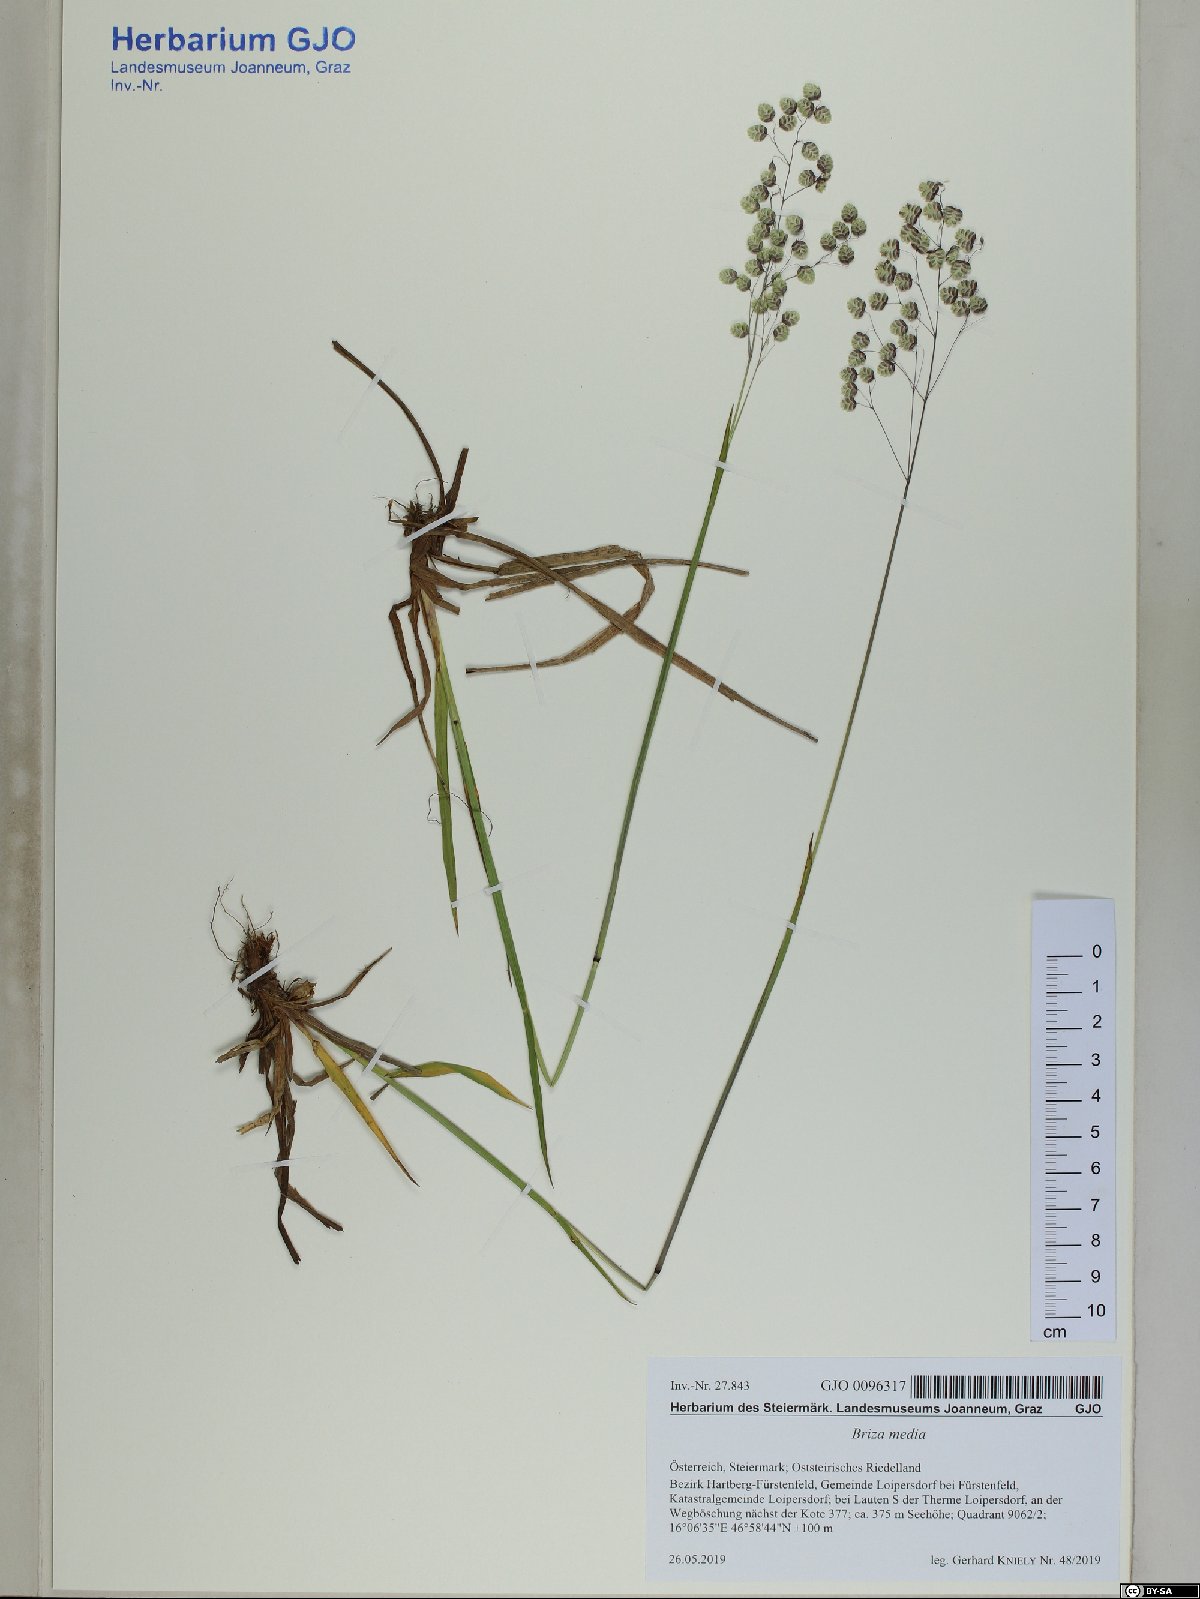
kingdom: Plantae
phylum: Tracheophyta
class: Liliopsida
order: Poales
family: Poaceae
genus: Briza
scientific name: Briza media
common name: Quaking grass
